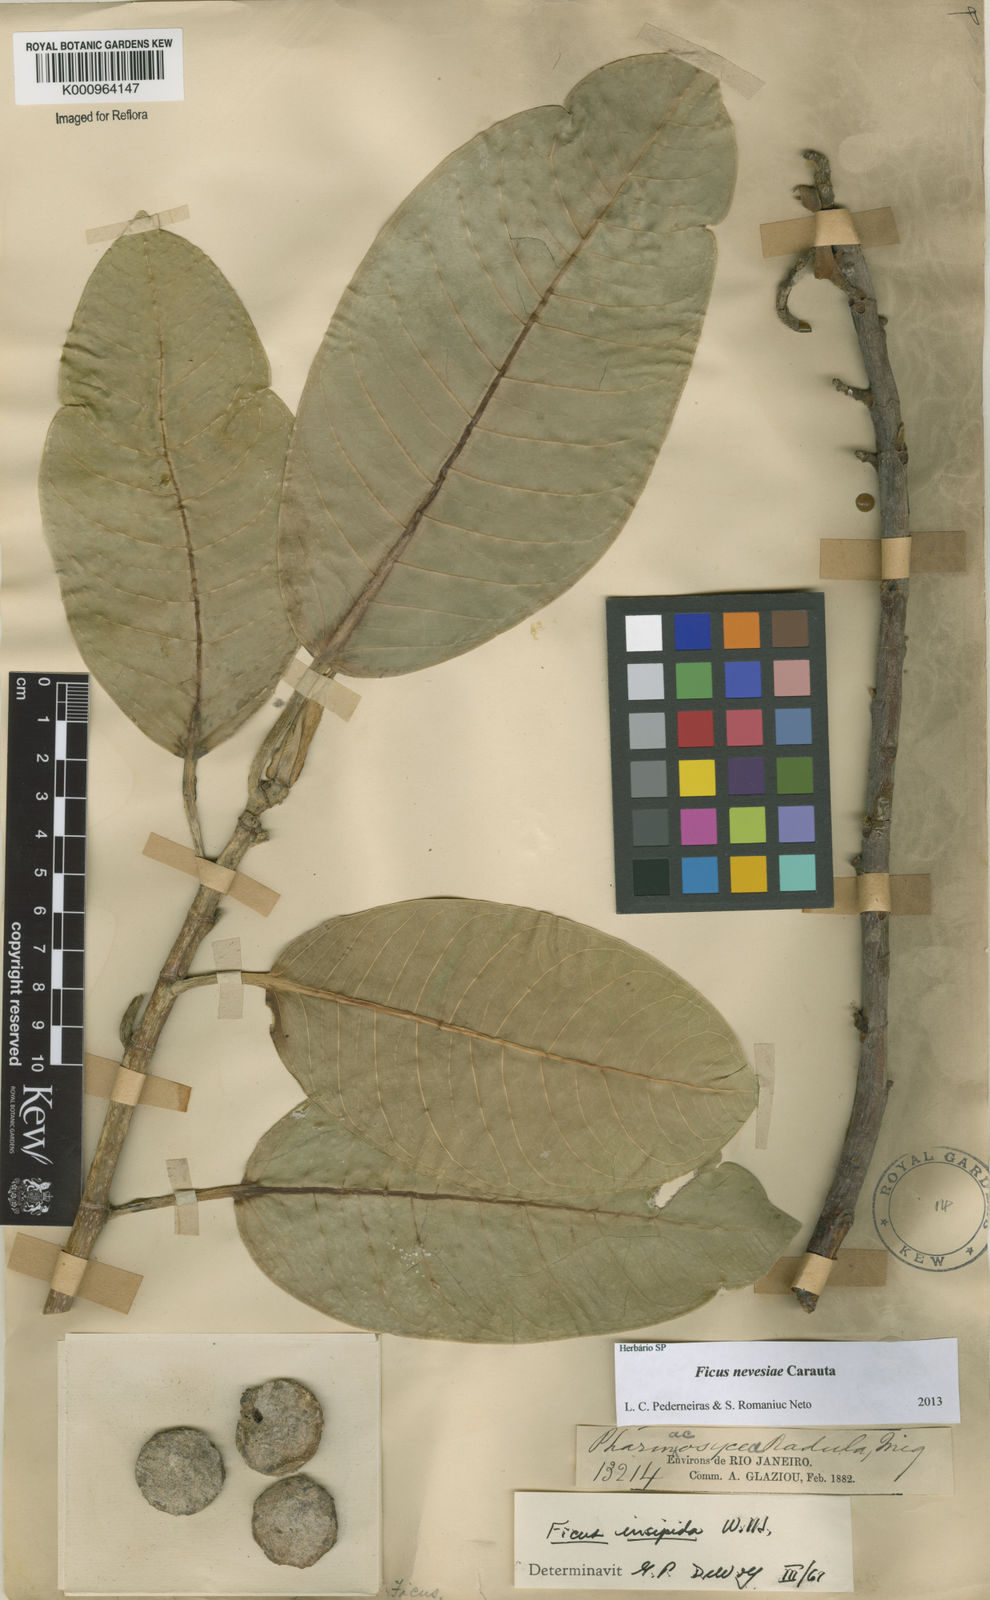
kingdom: Plantae
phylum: Tracheophyta
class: Magnoliopsida
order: Rosales
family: Moraceae
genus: Ficus
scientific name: Ficus vermifuga
